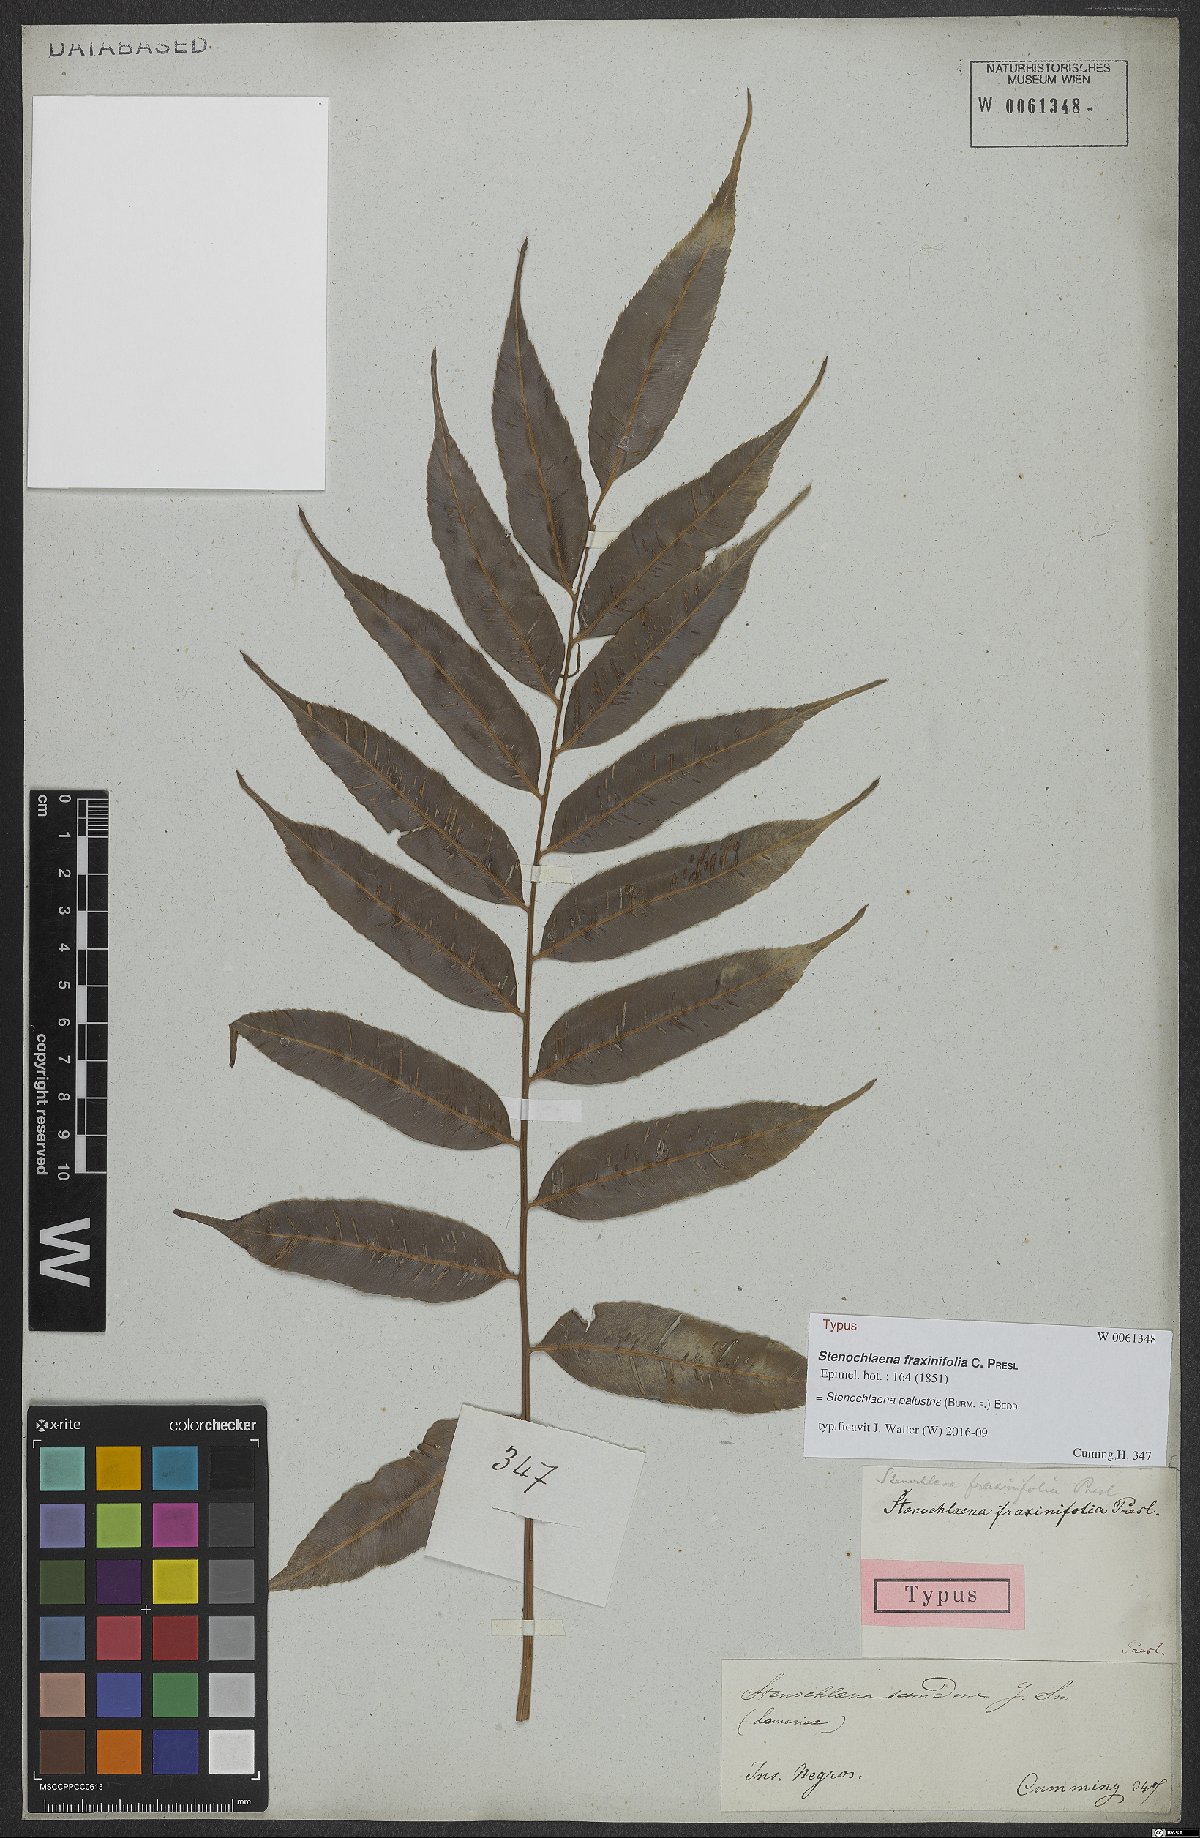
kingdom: Plantae
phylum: Tracheophyta
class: Polypodiopsida
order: Polypodiales
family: Blechnaceae
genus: Stenochlaena
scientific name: Stenochlaena palustris
